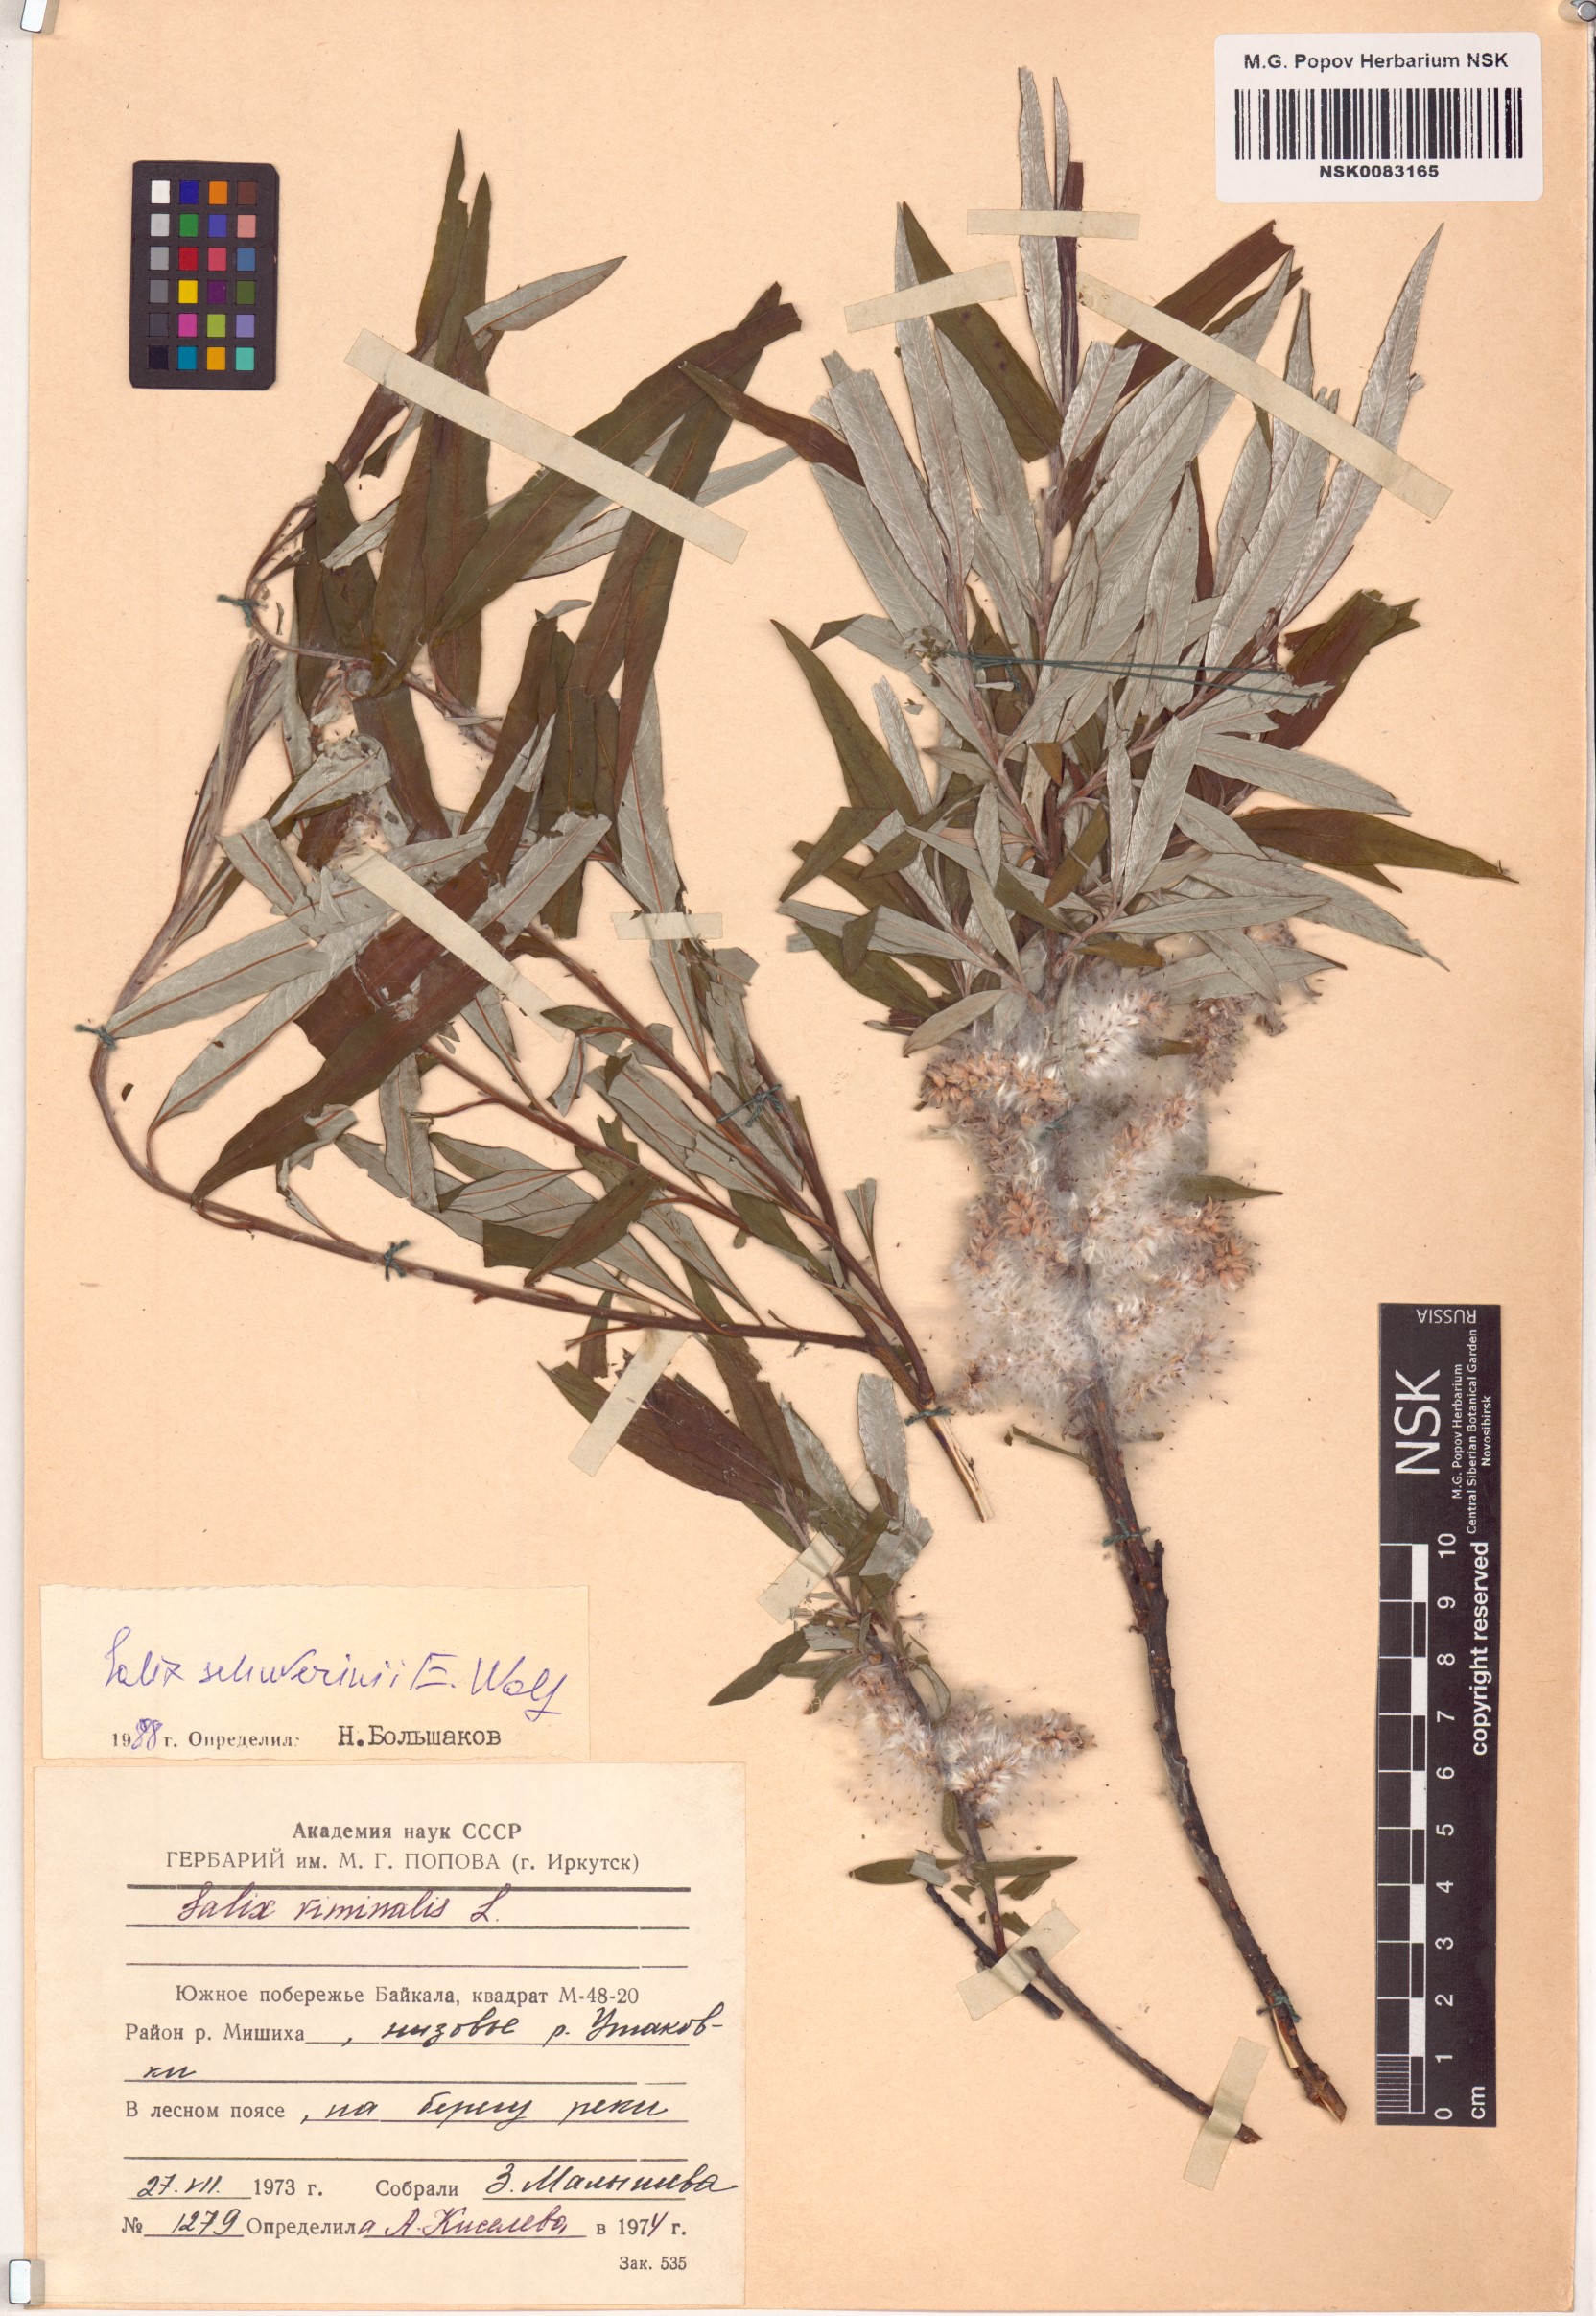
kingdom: Plantae
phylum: Tracheophyta
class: Magnoliopsida
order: Malpighiales
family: Salicaceae
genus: Salix
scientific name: Salix schwerinii
